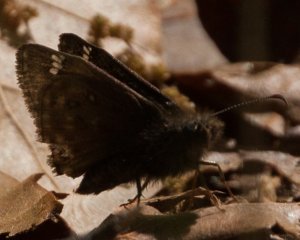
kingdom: Animalia
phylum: Arthropoda
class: Insecta
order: Lepidoptera
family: Hesperiidae
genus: Gesta
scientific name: Gesta
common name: Juvenal's Duskywing
